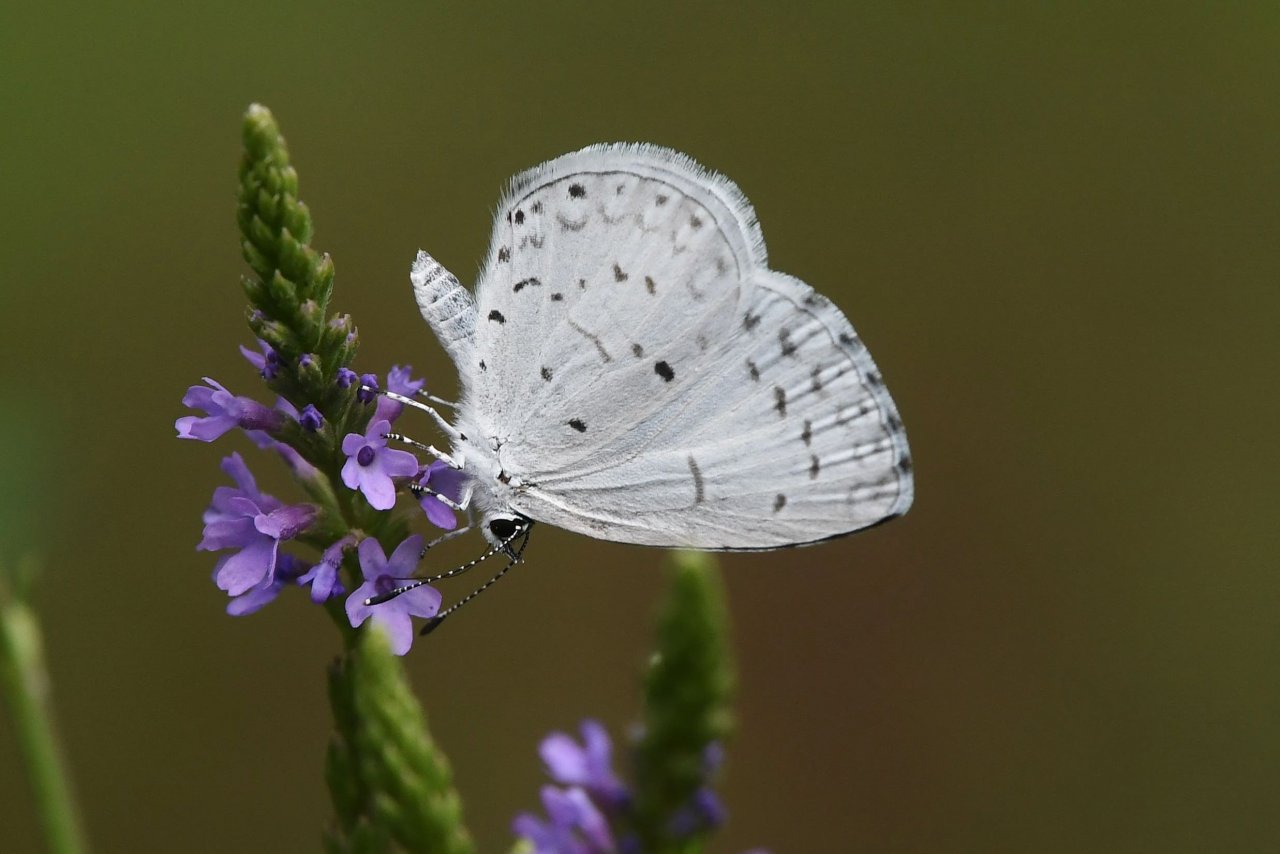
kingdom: Animalia
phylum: Arthropoda
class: Insecta
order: Lepidoptera
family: Lycaenidae
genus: Cyaniris
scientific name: Cyaniris neglecta
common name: Summer Azure
